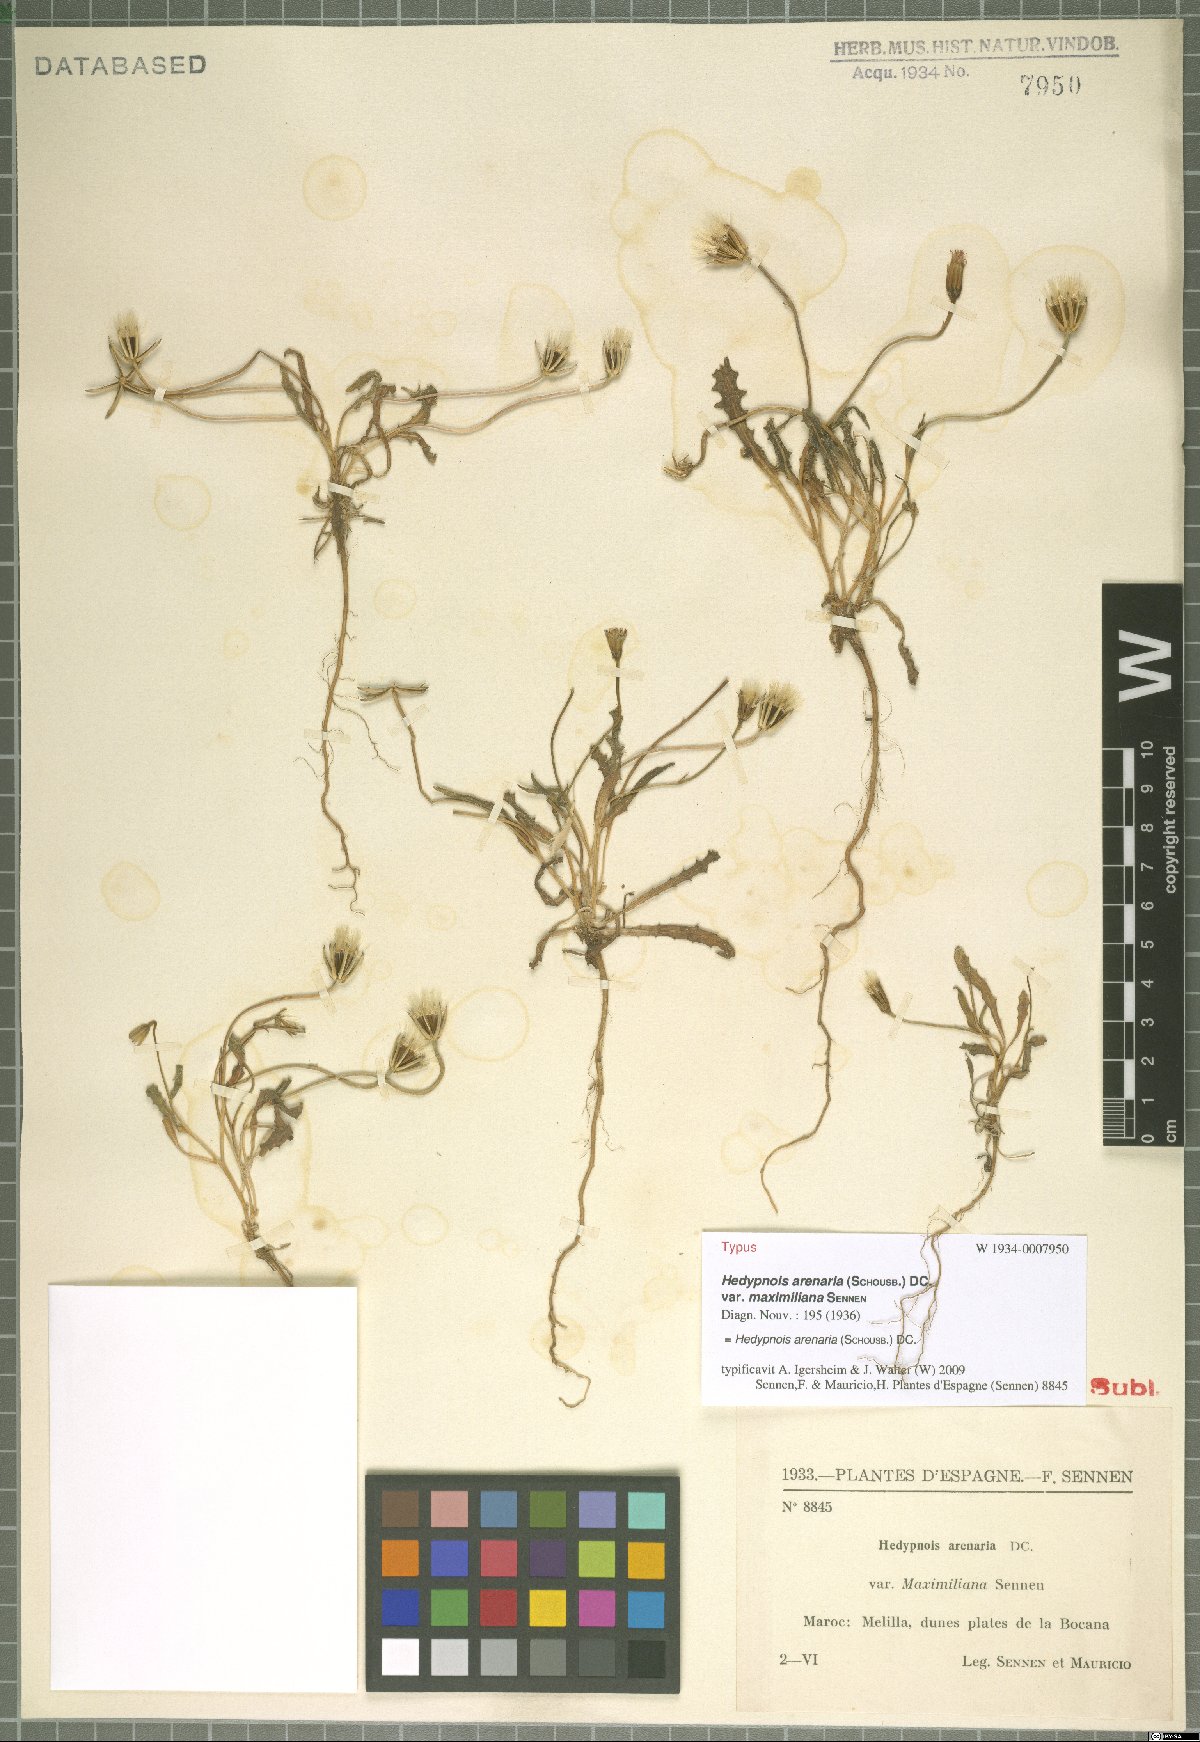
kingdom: Plantae
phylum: Tracheophyta
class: Magnoliopsida
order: Asterales
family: Asteraceae
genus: Hedypnois
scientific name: Hedypnois arenaria
